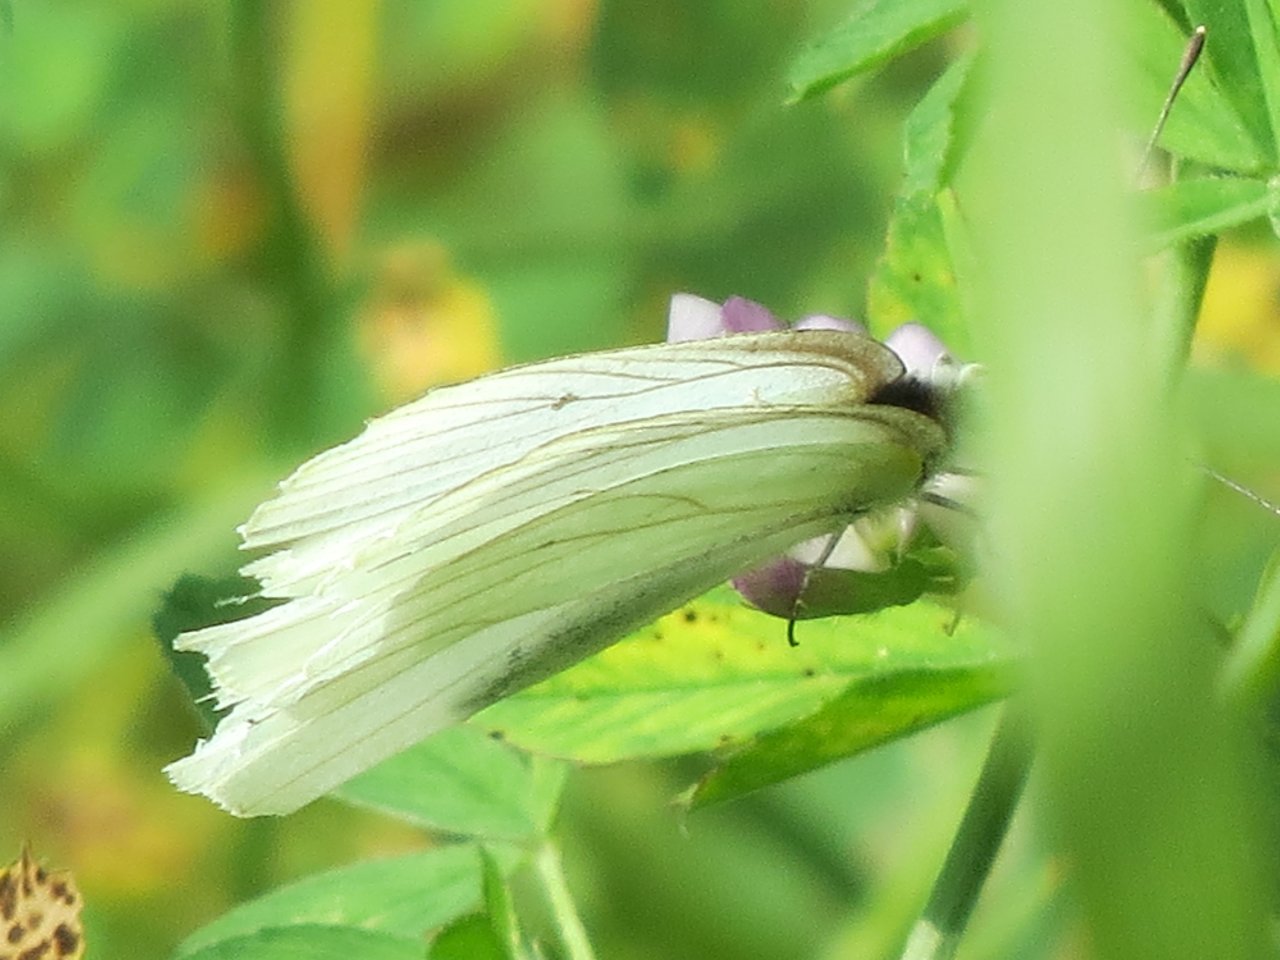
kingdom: Animalia
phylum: Arthropoda
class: Insecta
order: Lepidoptera
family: Pieridae
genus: Pieris
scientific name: Pieris oleracea
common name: Mustard White
